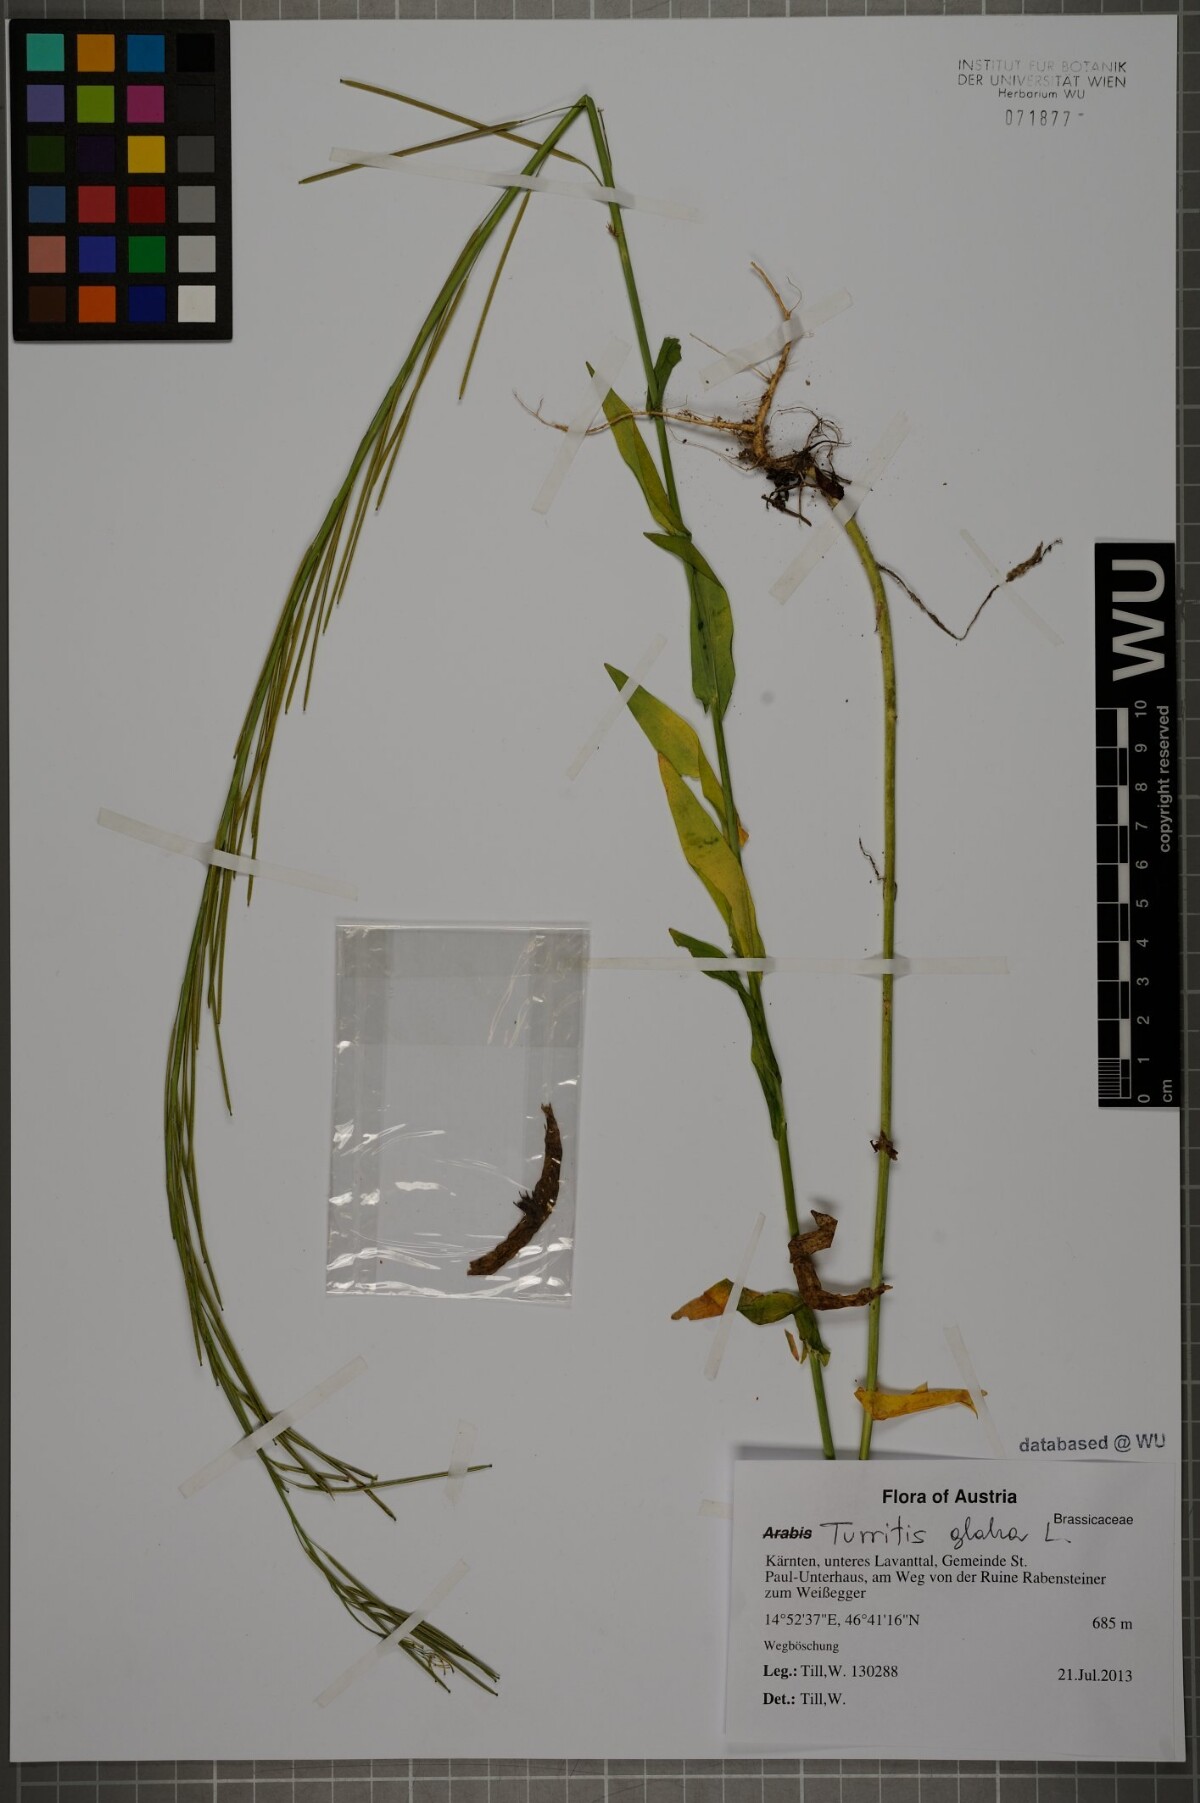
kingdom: Plantae
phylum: Tracheophyta
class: Magnoliopsida
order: Brassicales
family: Brassicaceae
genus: Turritis
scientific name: Turritis glabra
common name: Tower rockcress
